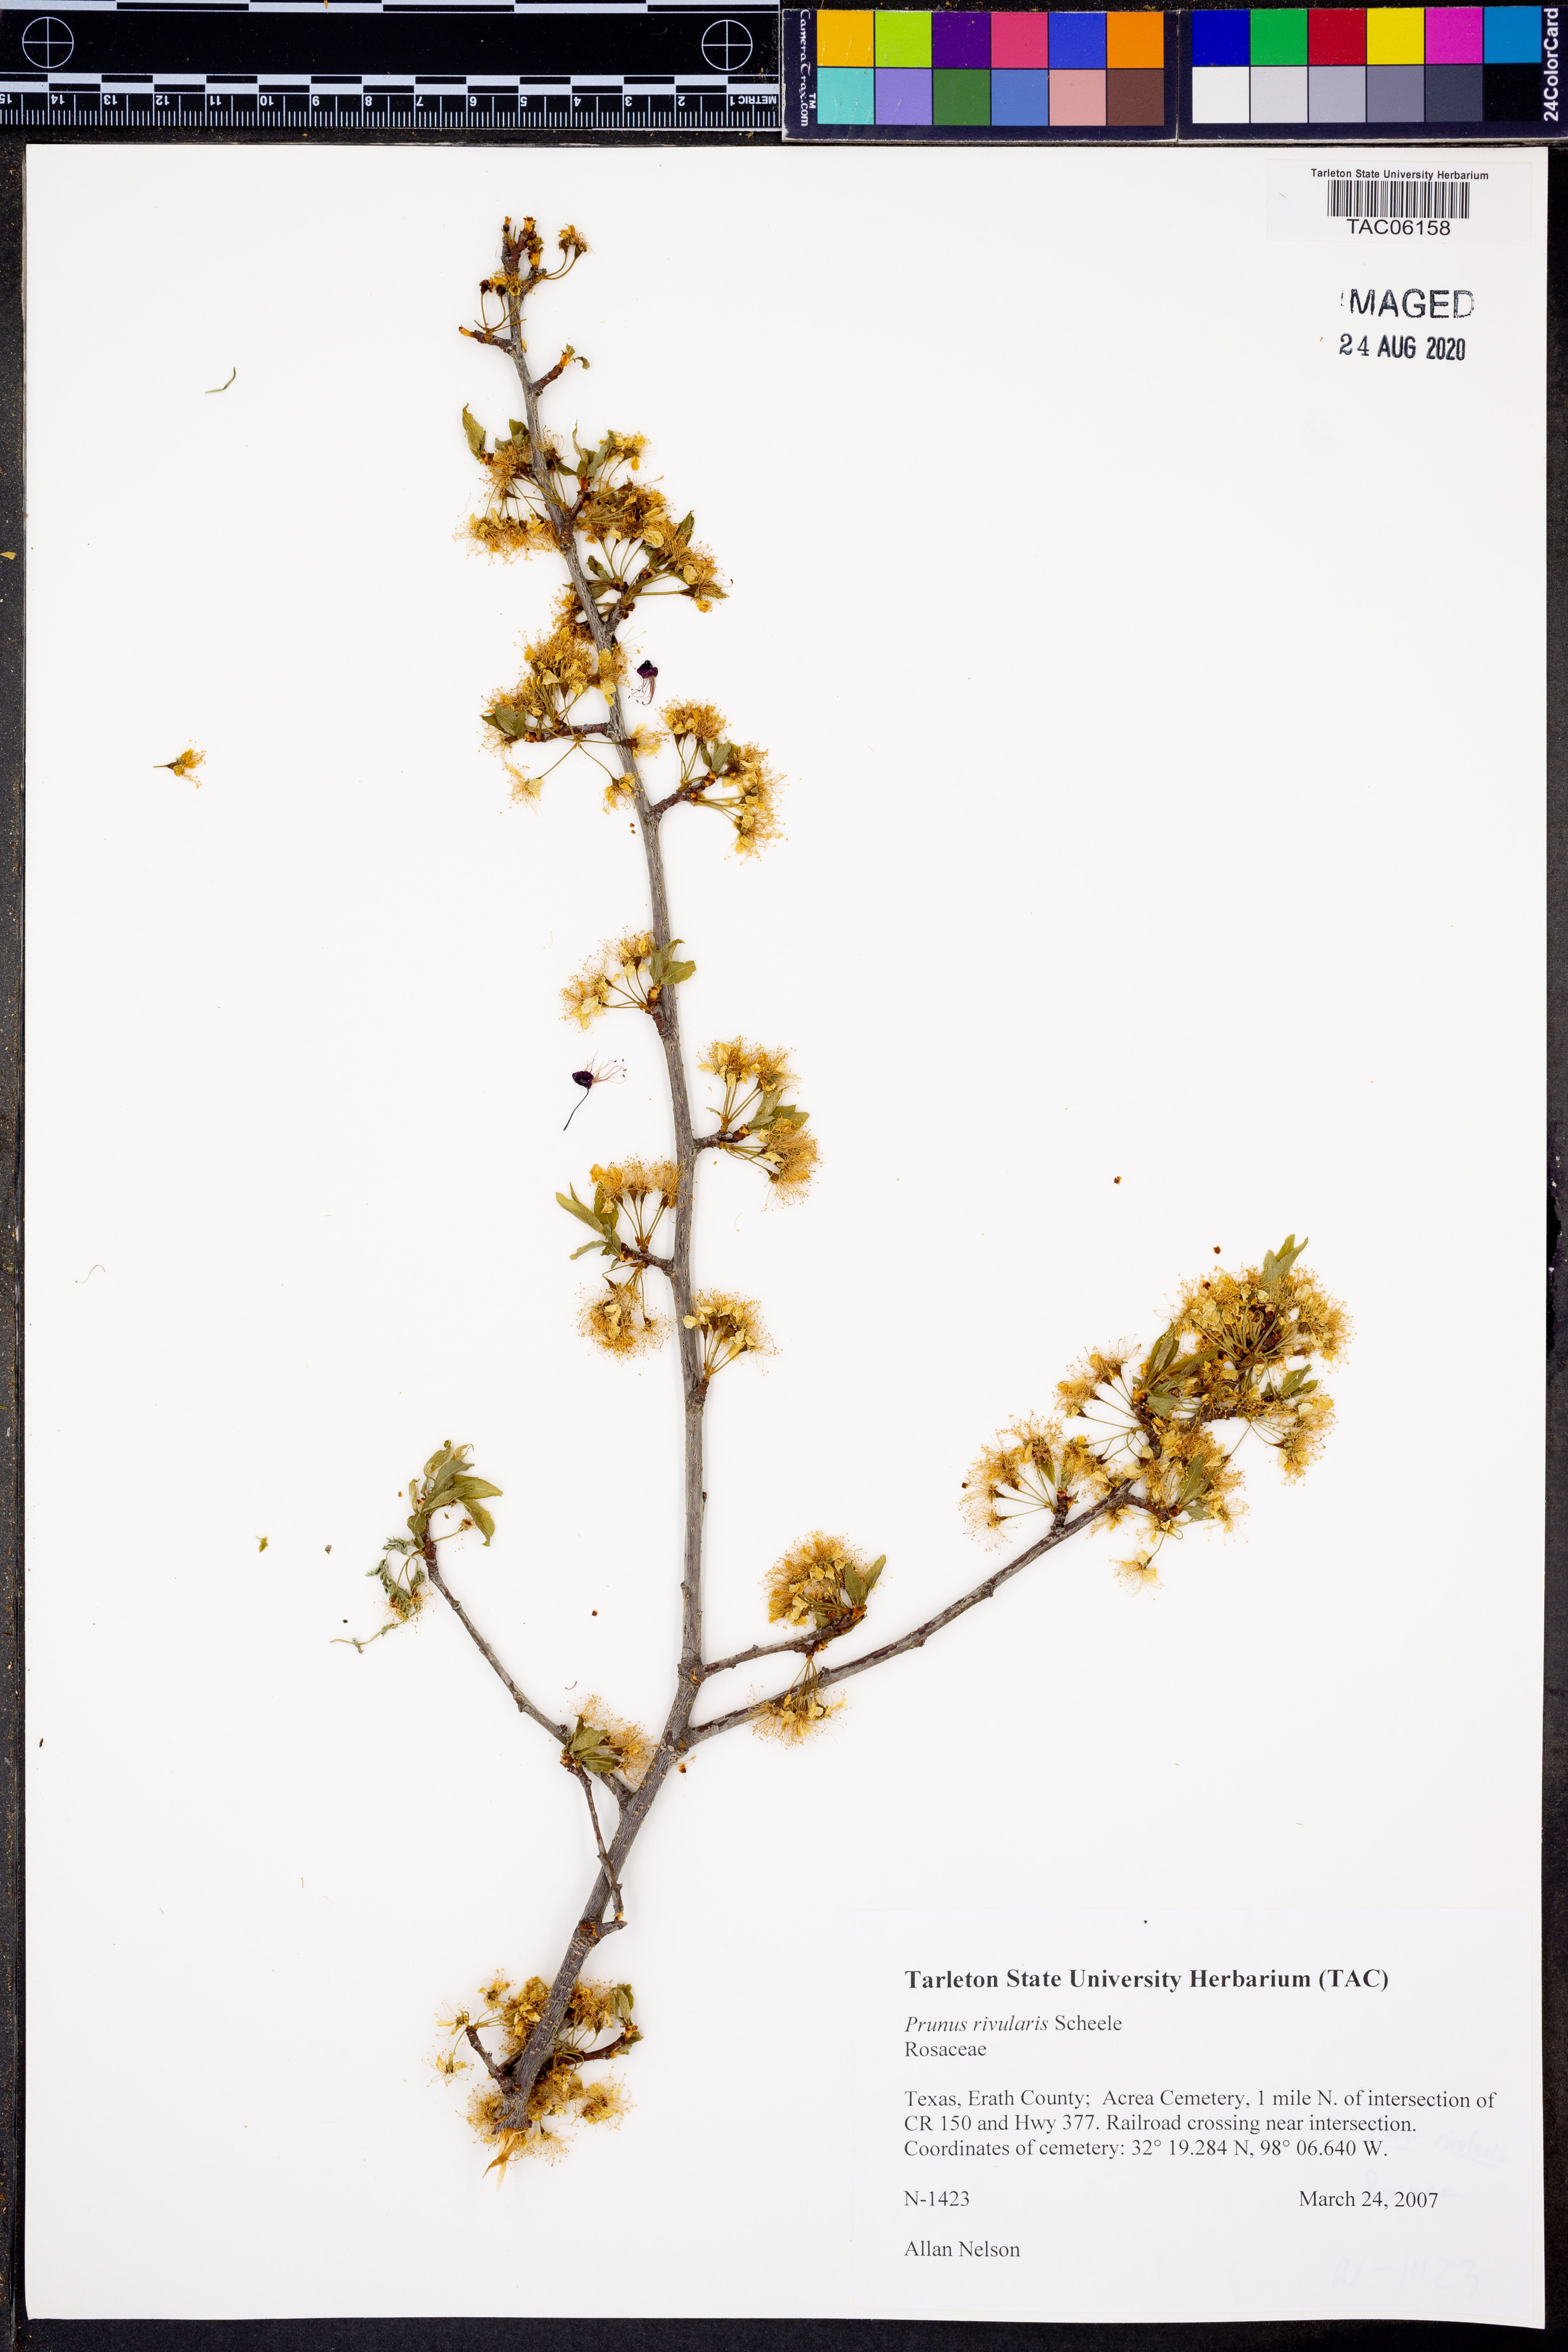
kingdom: Plantae
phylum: Tracheophyta
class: Magnoliopsida
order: Rosales
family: Rosaceae
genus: Prunus
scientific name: Prunus rivularis
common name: Creek plum
